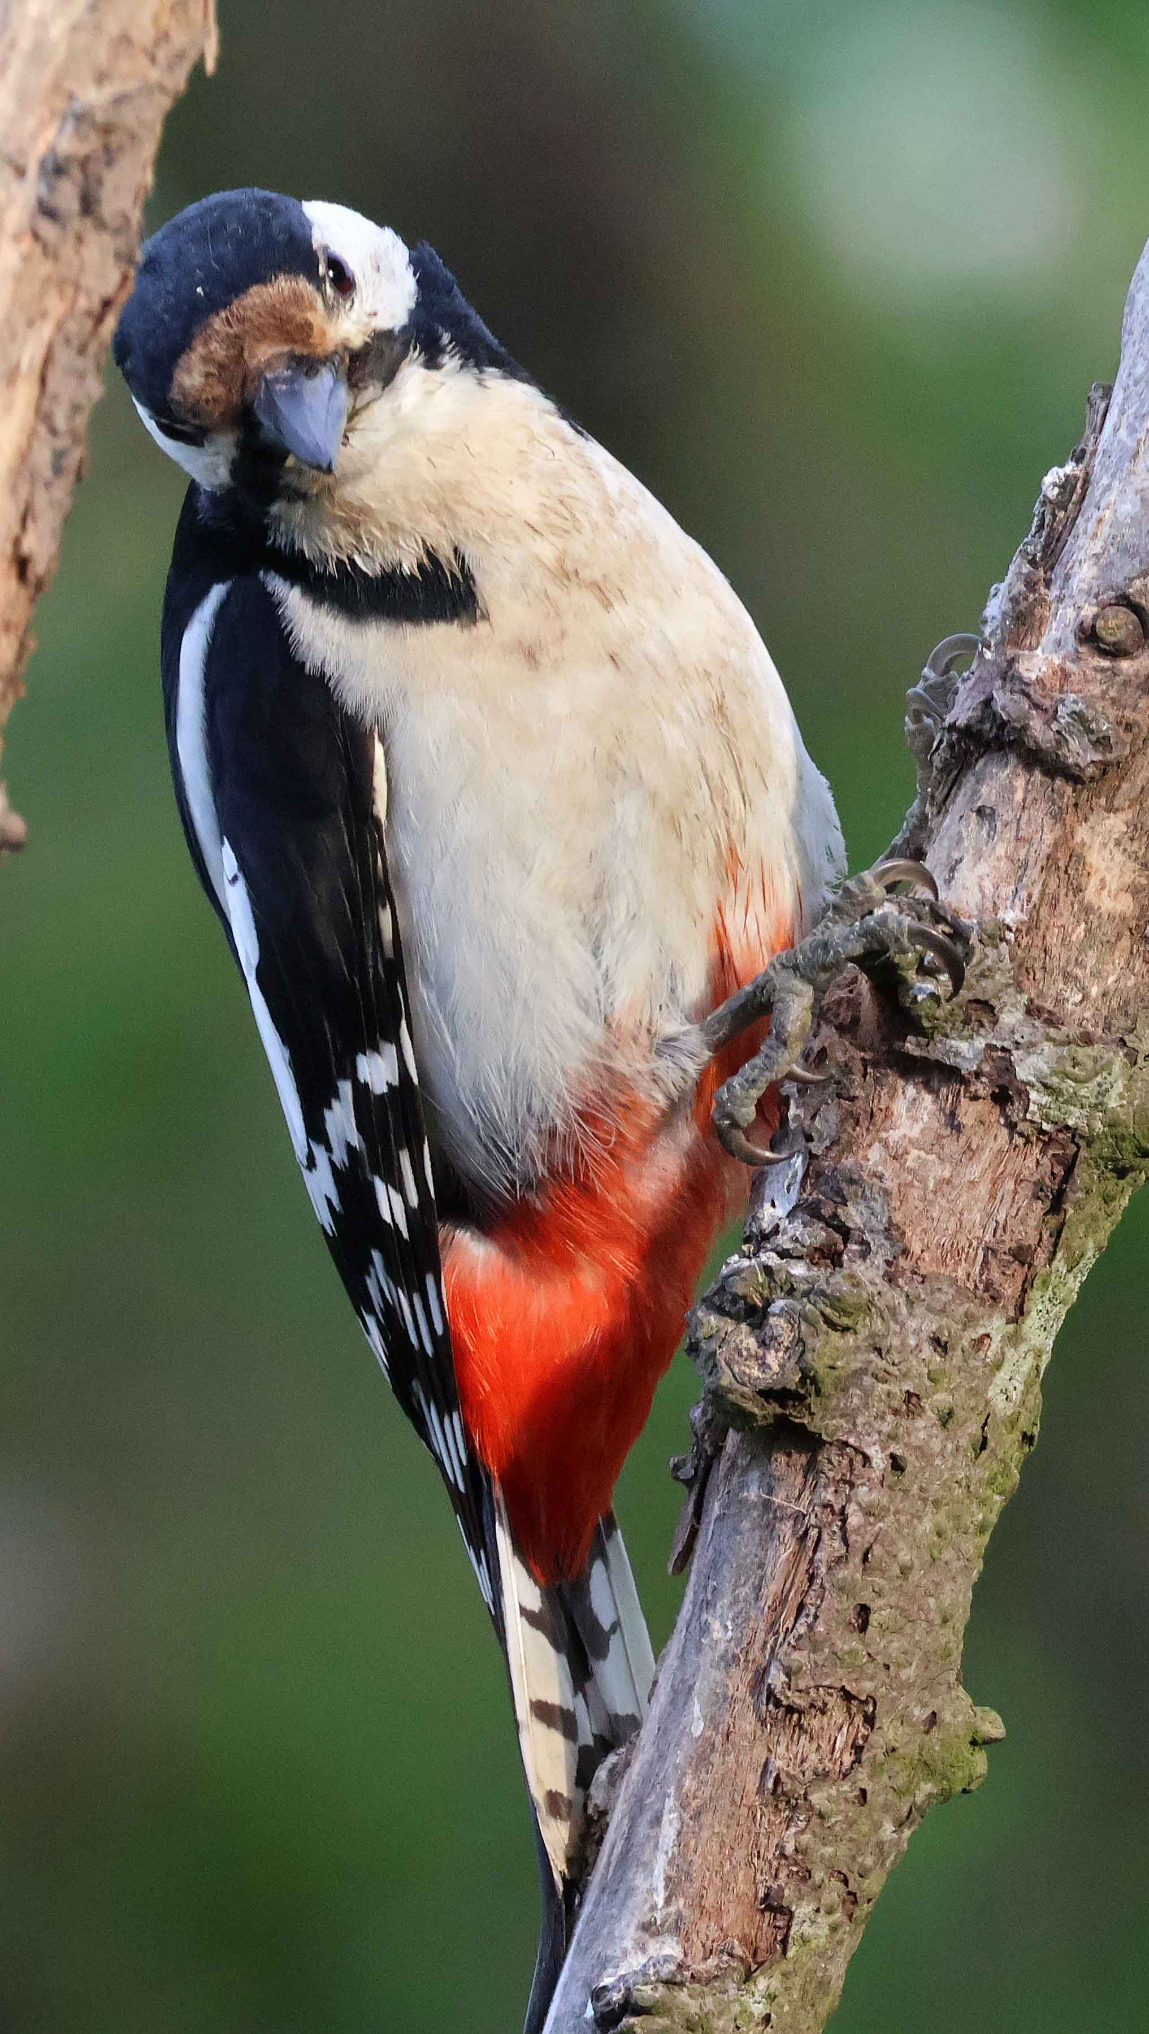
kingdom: Animalia
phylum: Chordata
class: Aves
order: Piciformes
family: Picidae
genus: Dendrocopos
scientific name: Dendrocopos major
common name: Stor flagspætte
